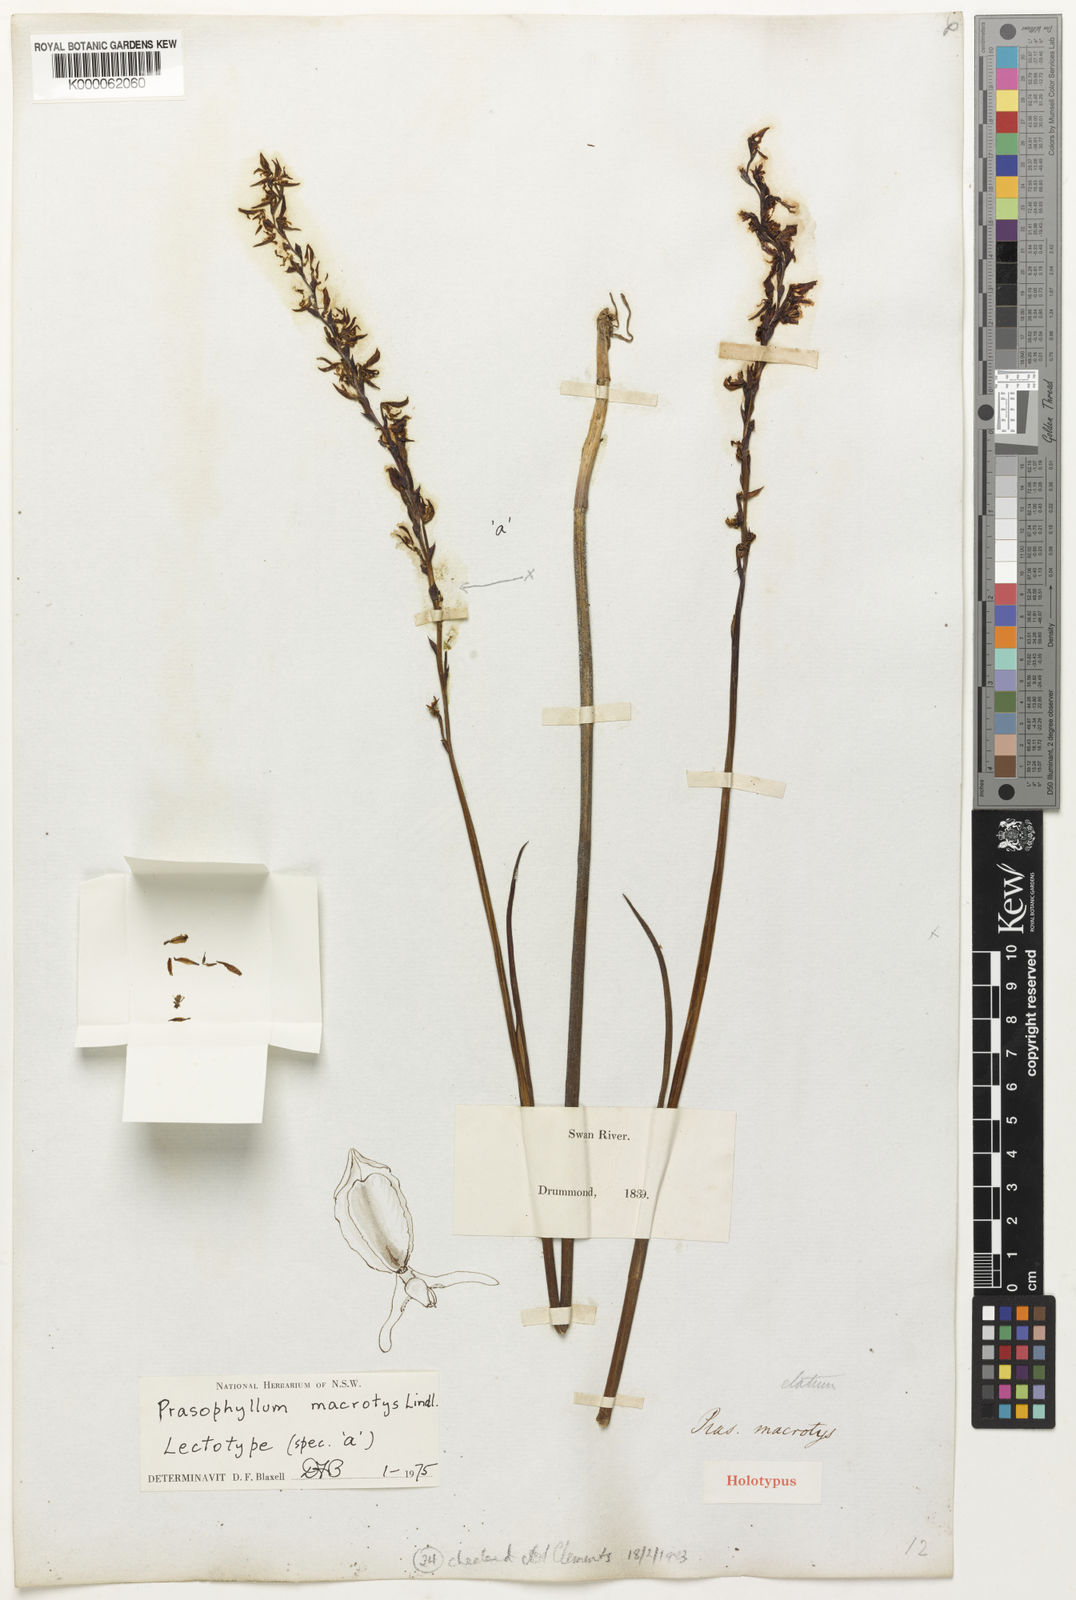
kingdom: Plantae
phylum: Tracheophyta
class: Liliopsida
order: Asparagales
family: Orchidaceae
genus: Prasophyllum
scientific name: Prasophyllum macrotys
